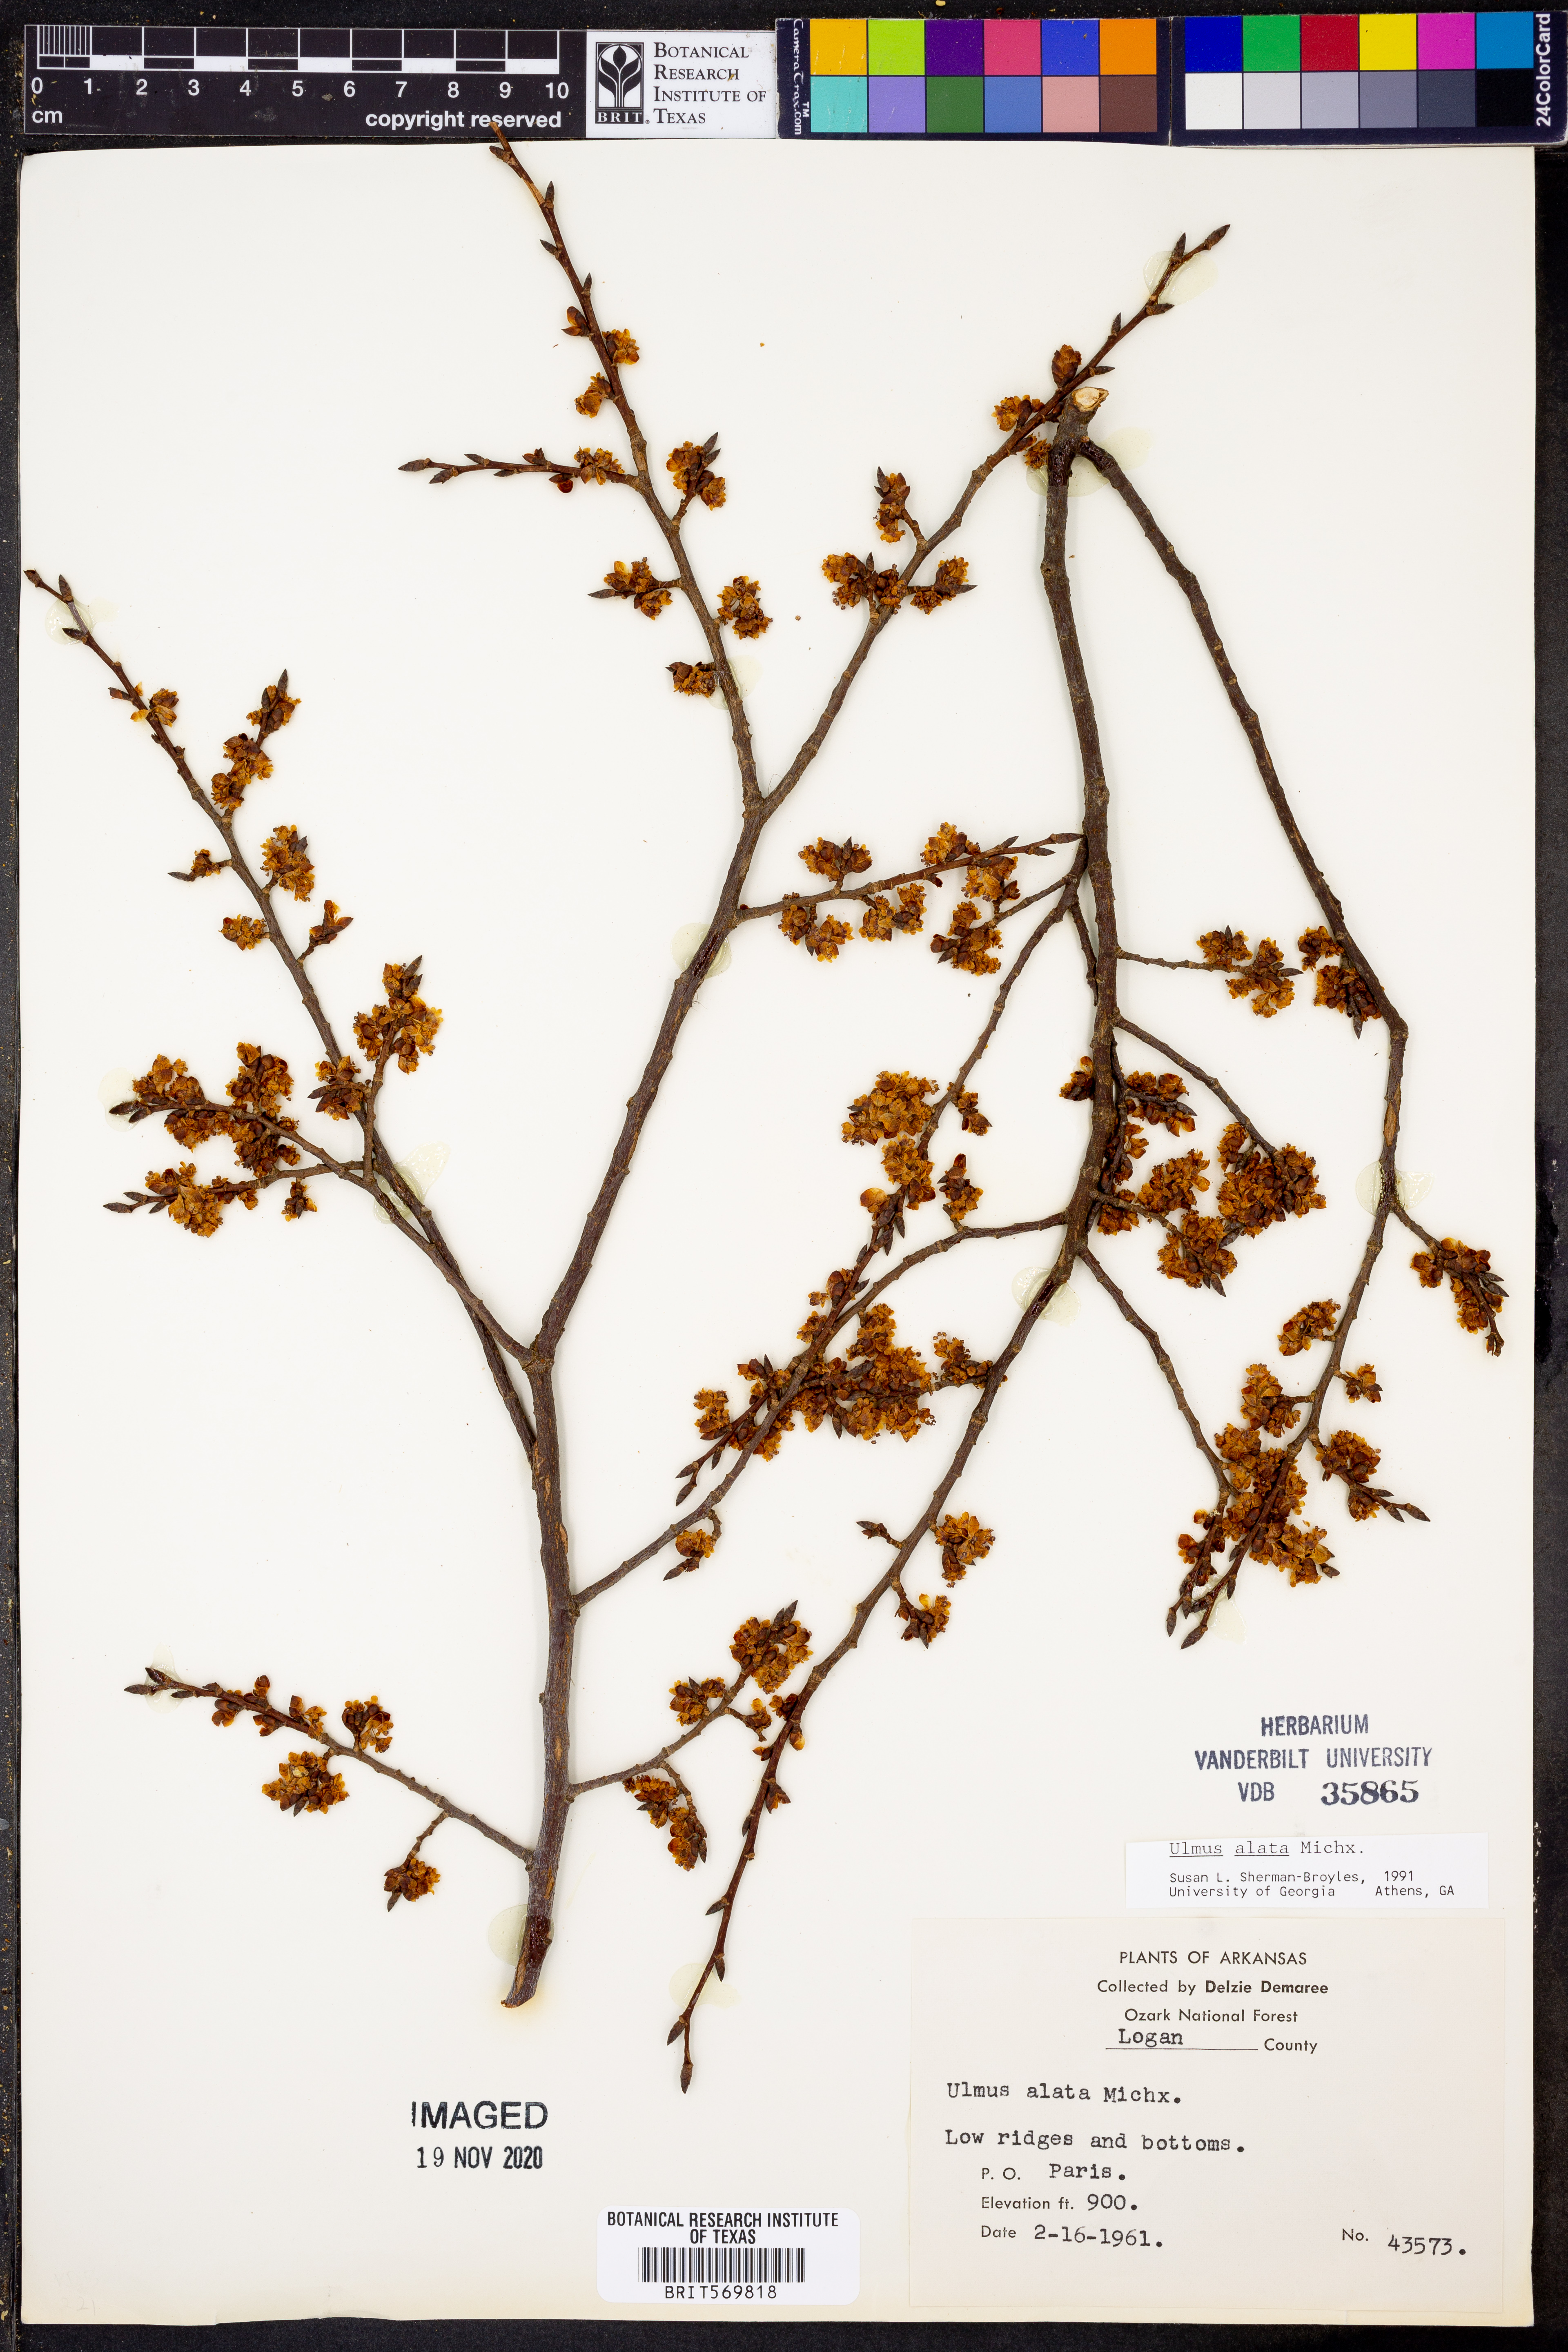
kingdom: Plantae
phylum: Tracheophyta
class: Magnoliopsida
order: Rosales
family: Ulmaceae
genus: Ulmus
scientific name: Ulmus alata
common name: Winged elm
